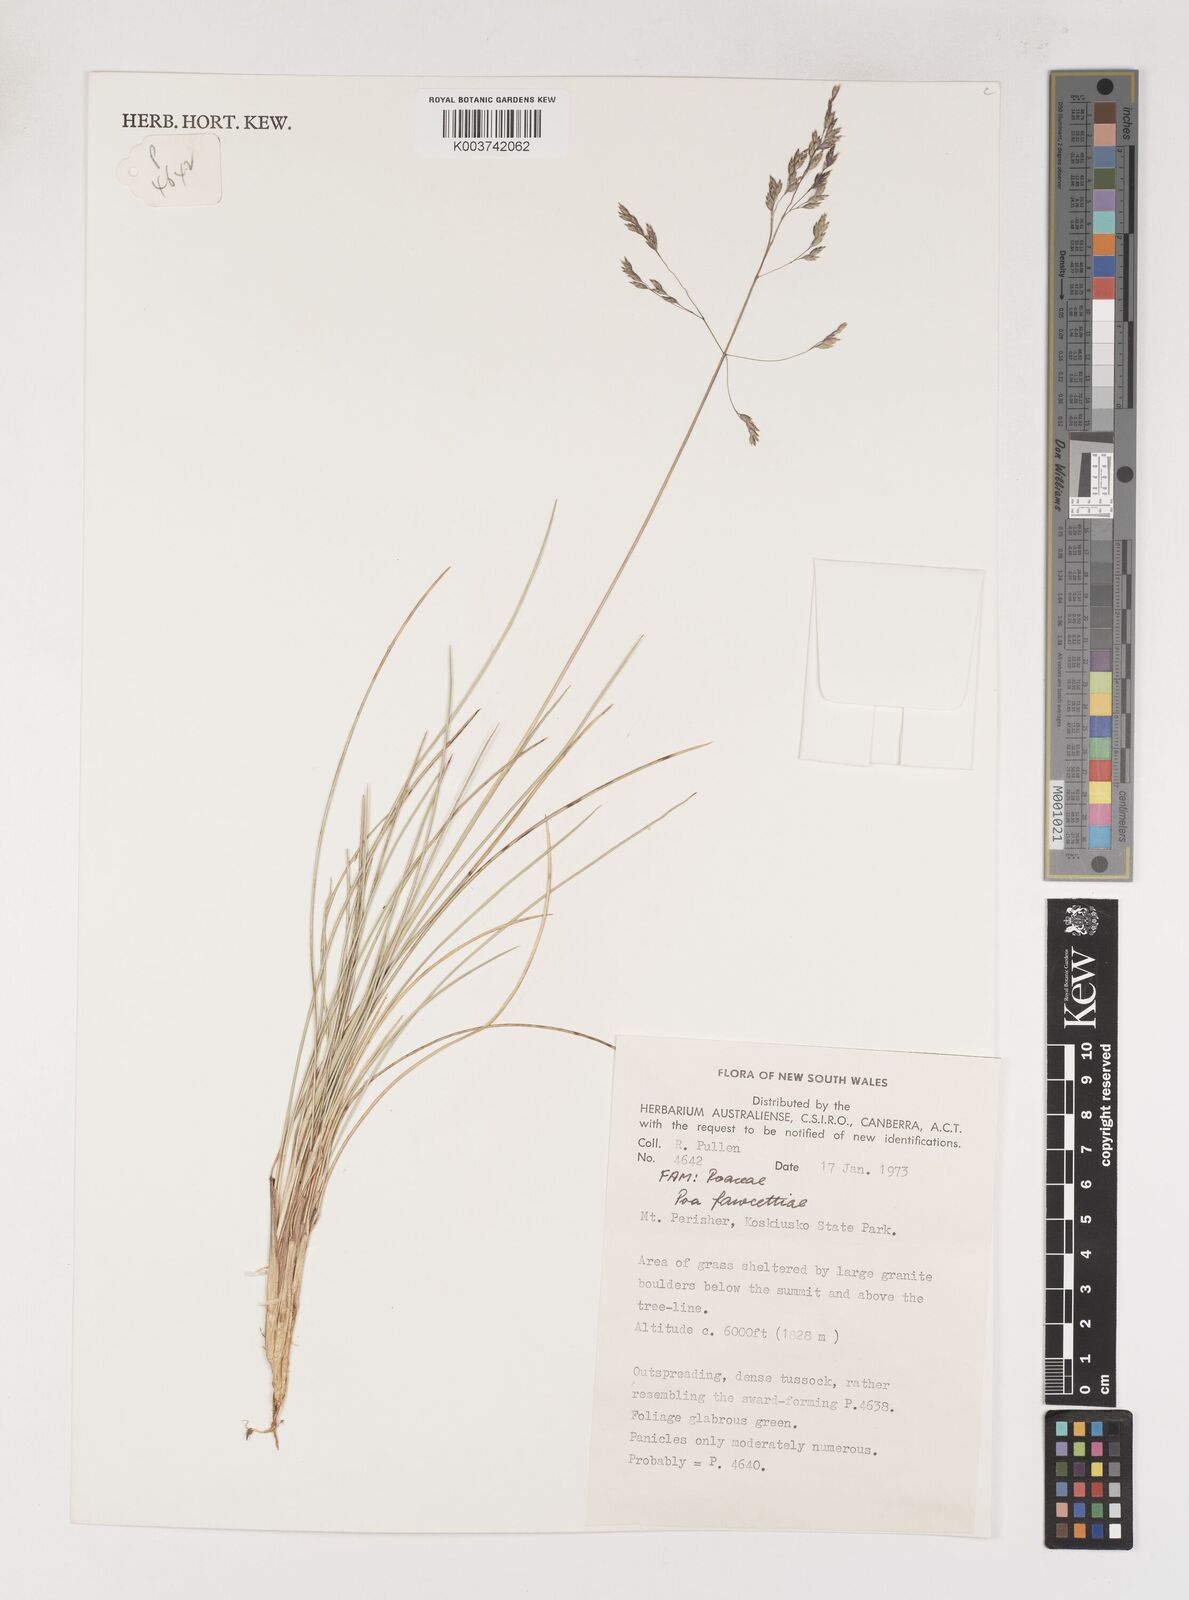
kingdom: Plantae
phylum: Tracheophyta
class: Liliopsida
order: Poales
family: Poaceae
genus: Poa
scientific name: Poa fawcettiae
